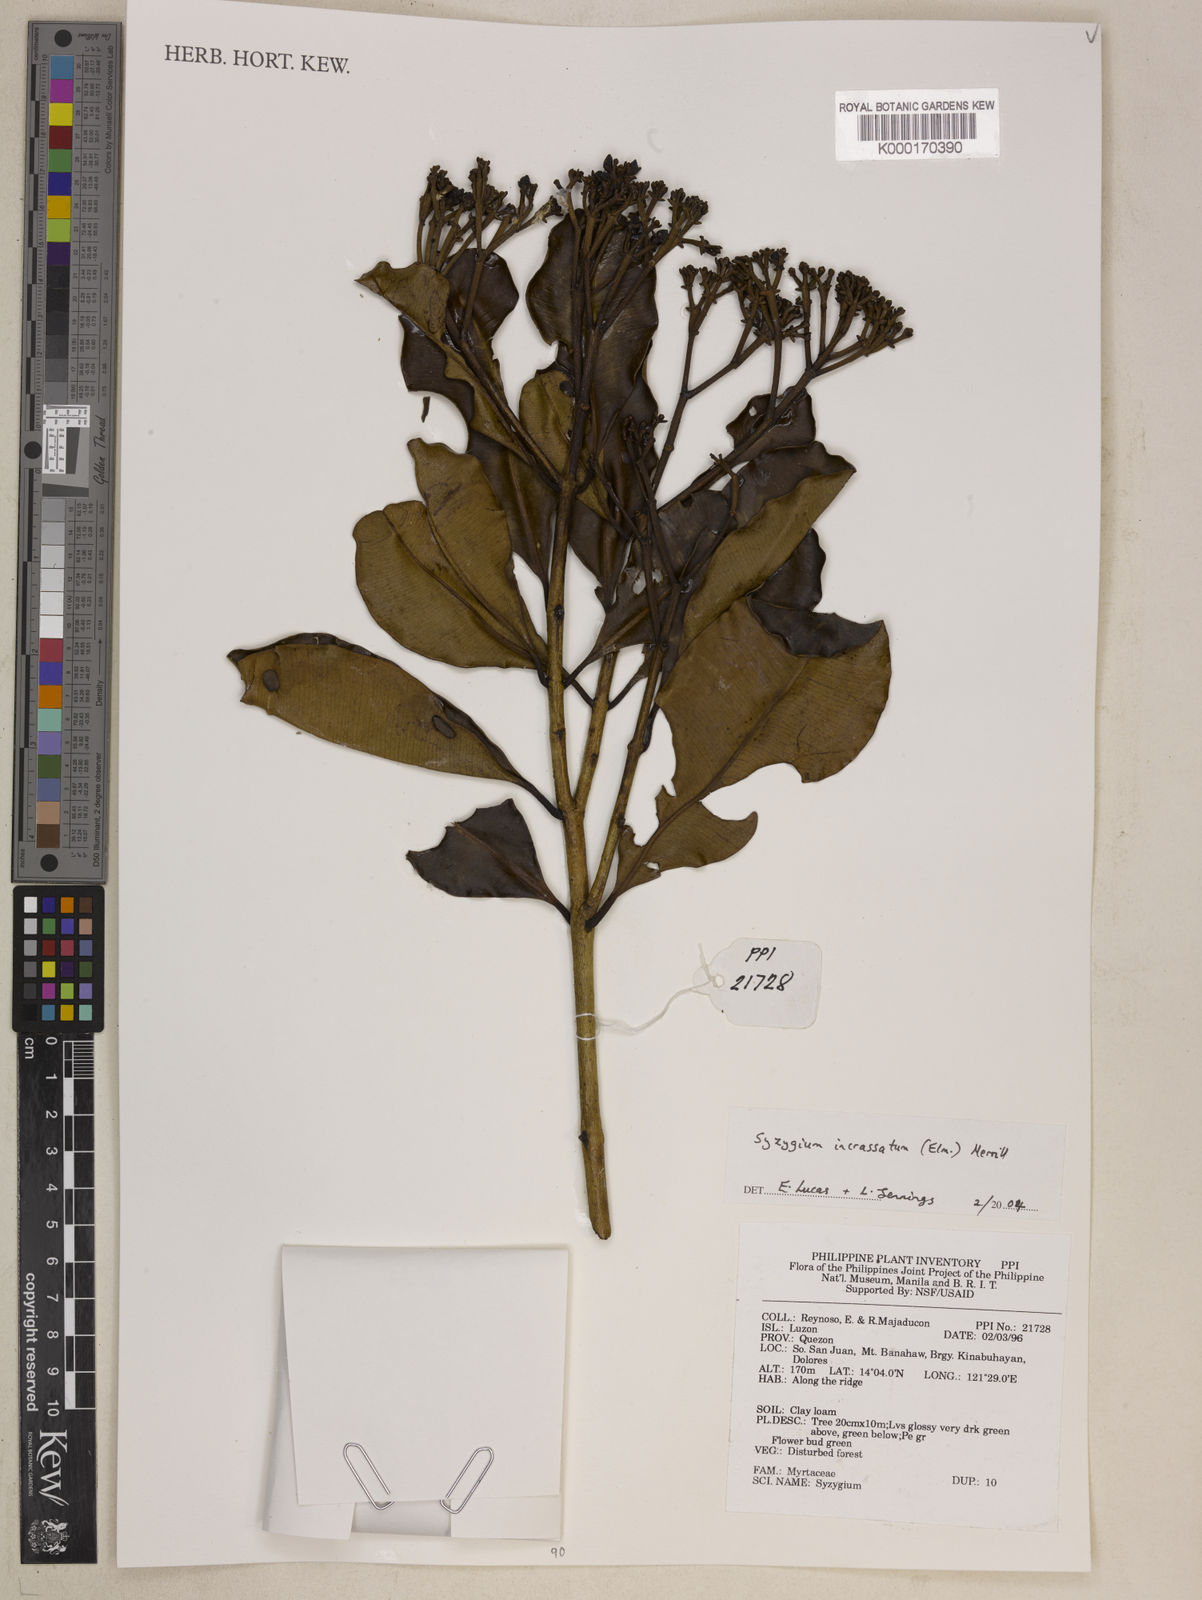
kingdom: Plantae
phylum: Tracheophyta
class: Magnoliopsida
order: Myrtales
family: Myrtaceae
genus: Syzygium
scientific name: Syzygium incrassatum
